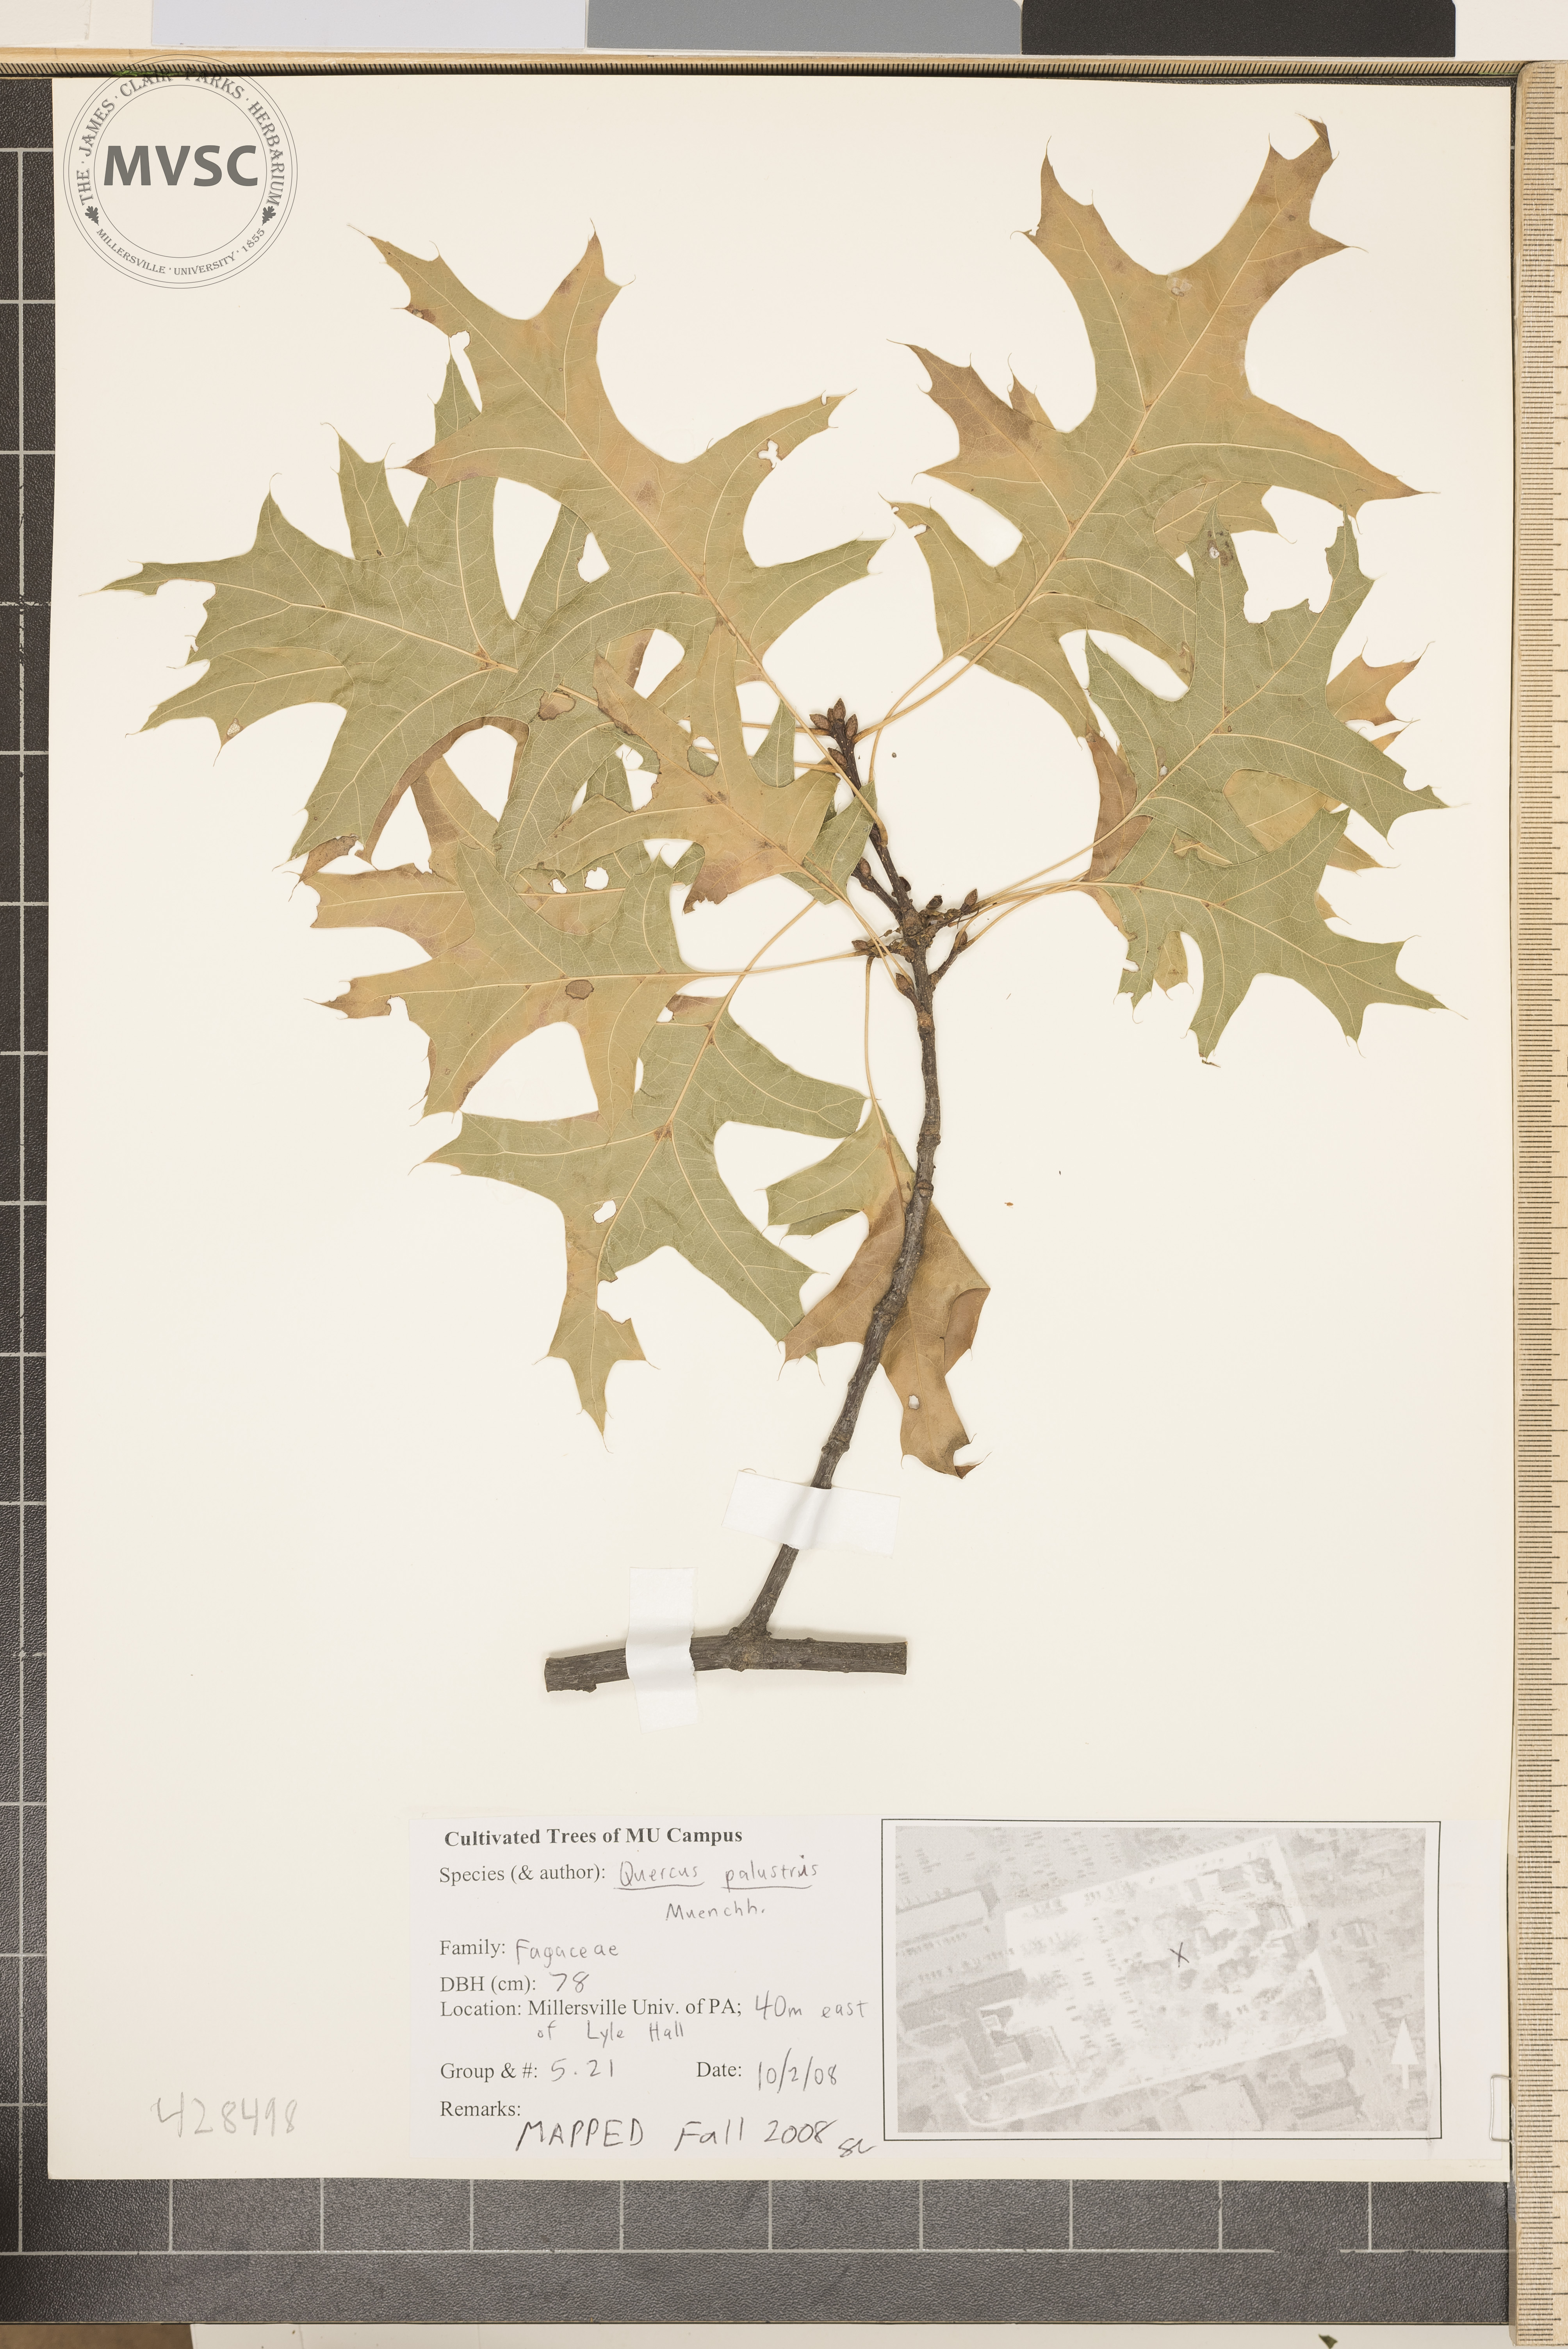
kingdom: Plantae
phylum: Tracheophyta
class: Magnoliopsida
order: Fagales
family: Fagaceae
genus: Quercus
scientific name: Quercus palustris
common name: Pin Oak
